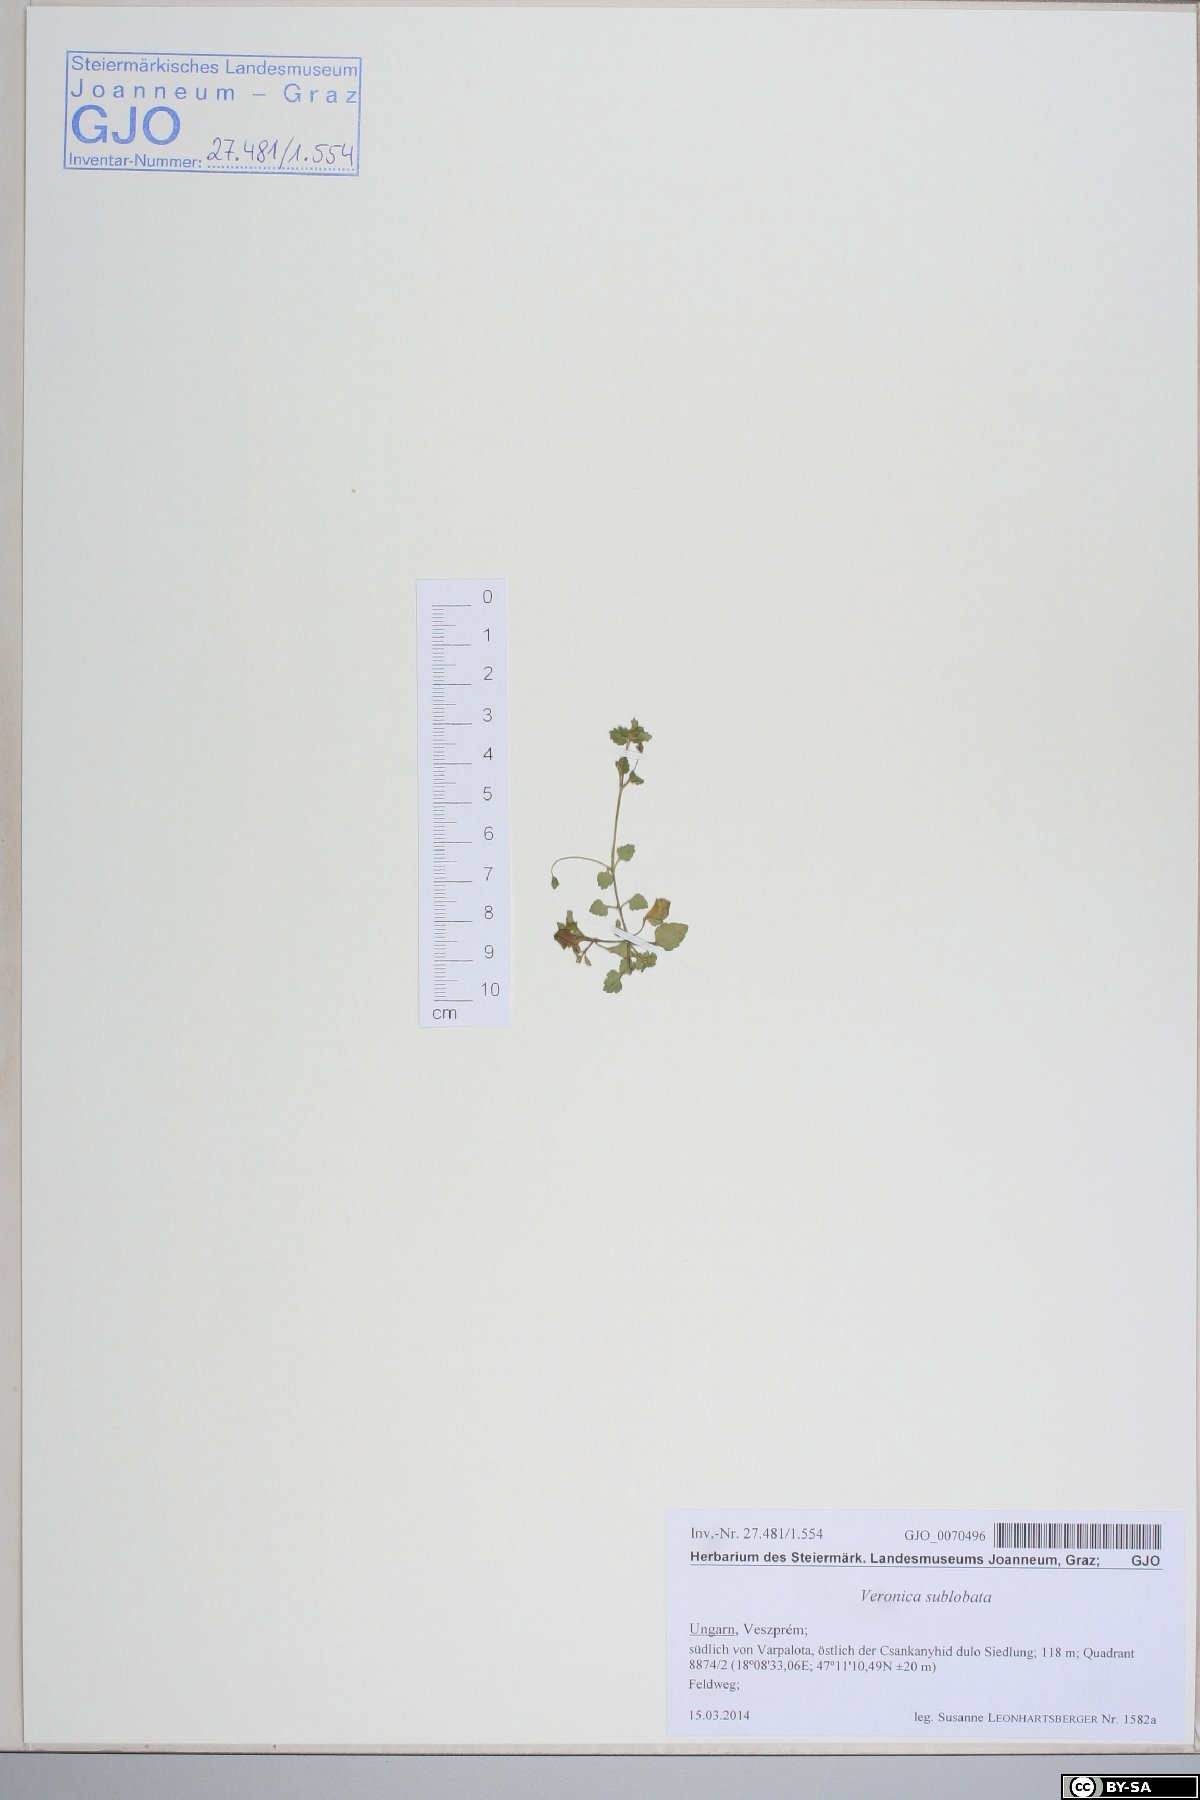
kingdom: Plantae
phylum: Tracheophyta
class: Magnoliopsida
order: Lamiales
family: Plantaginaceae
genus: Veronica
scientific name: Veronica sublobata
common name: False ivy-leaved speedwell
